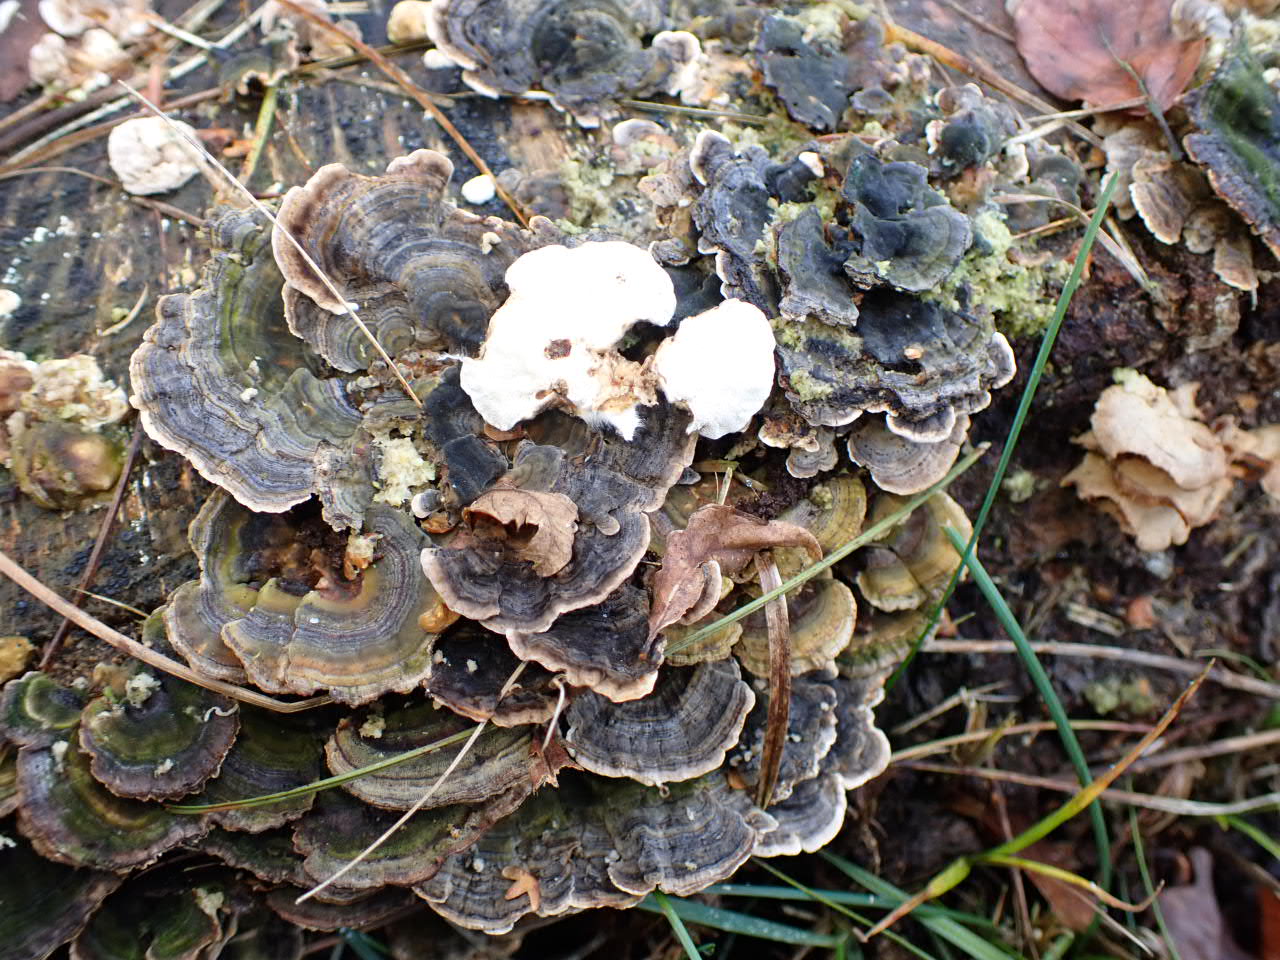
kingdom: Fungi
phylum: Basidiomycota
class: Agaricomycetes
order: Polyporales
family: Polyporaceae
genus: Trametes
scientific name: Trametes versicolor
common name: broget læderporesvamp
